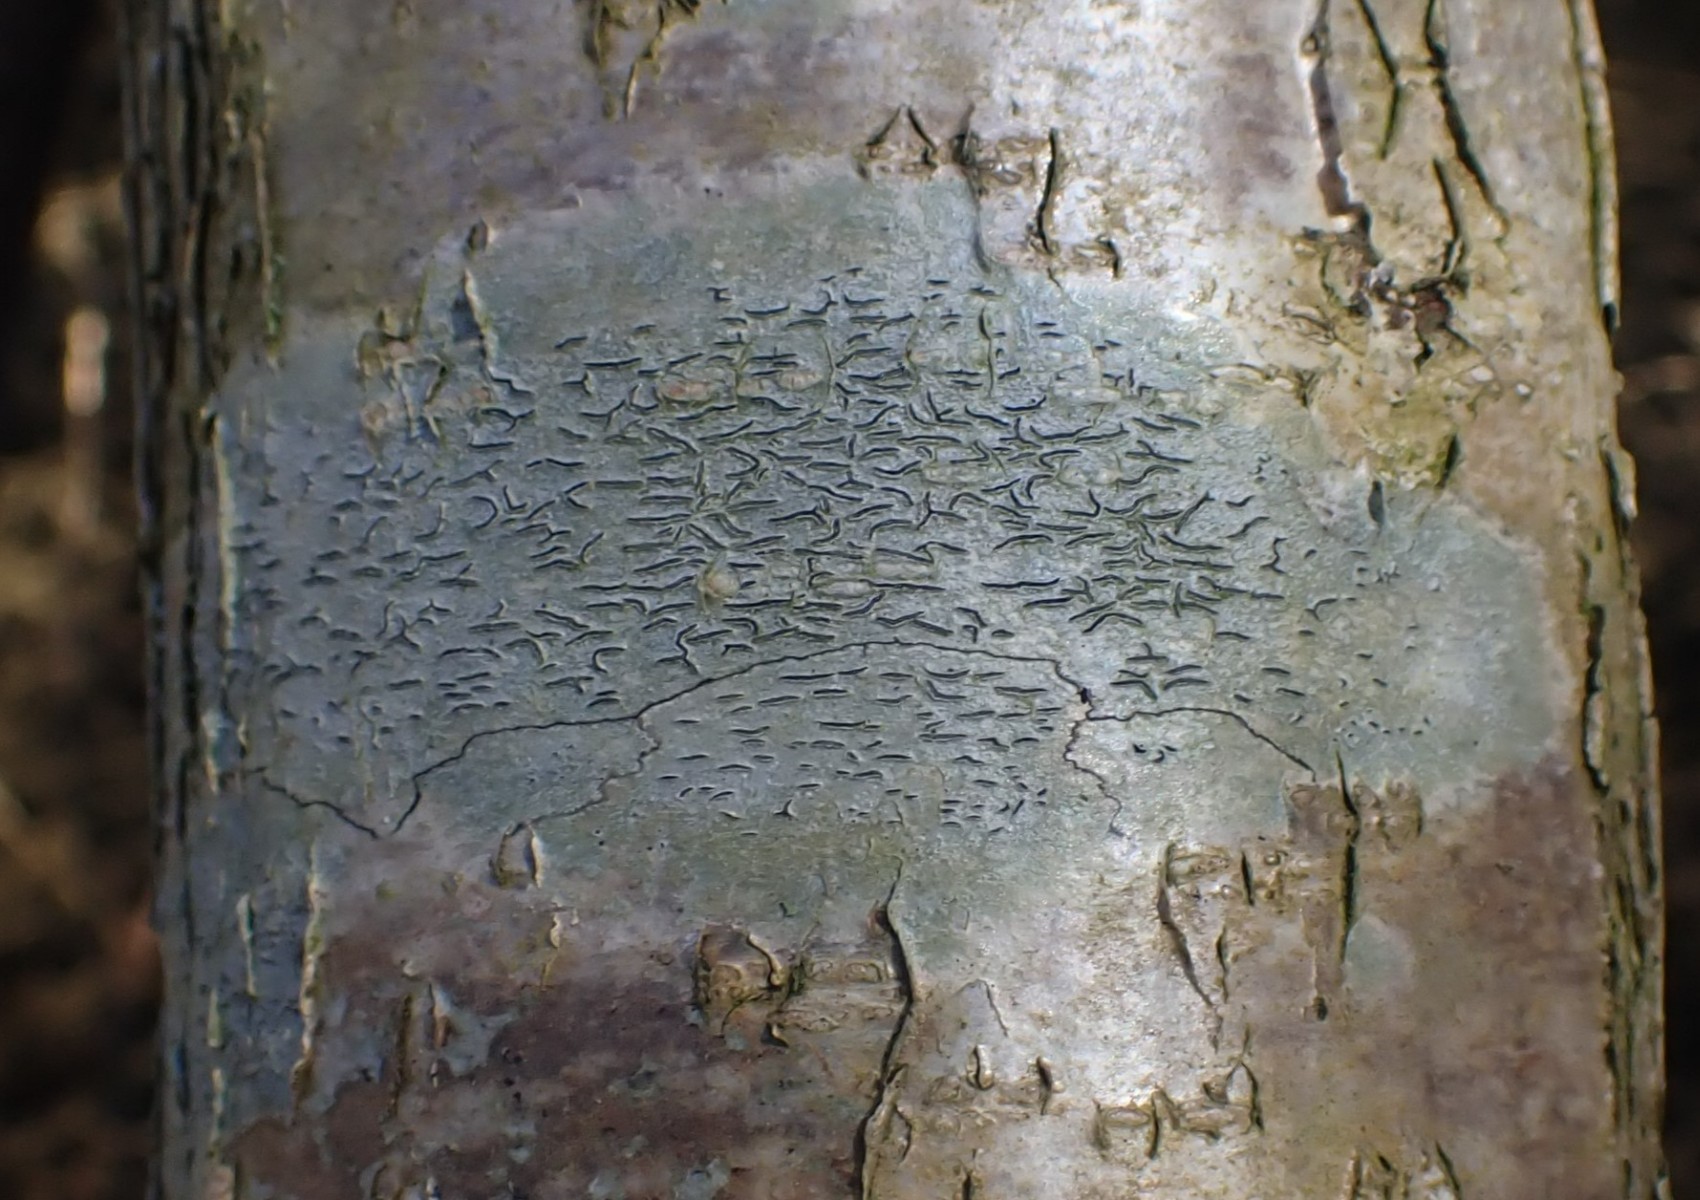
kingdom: Fungi
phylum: Ascomycota
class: Lecanoromycetes
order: Ostropales
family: Graphidaceae
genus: Graphis
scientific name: Graphis scripta
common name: almindelig skriftlav
